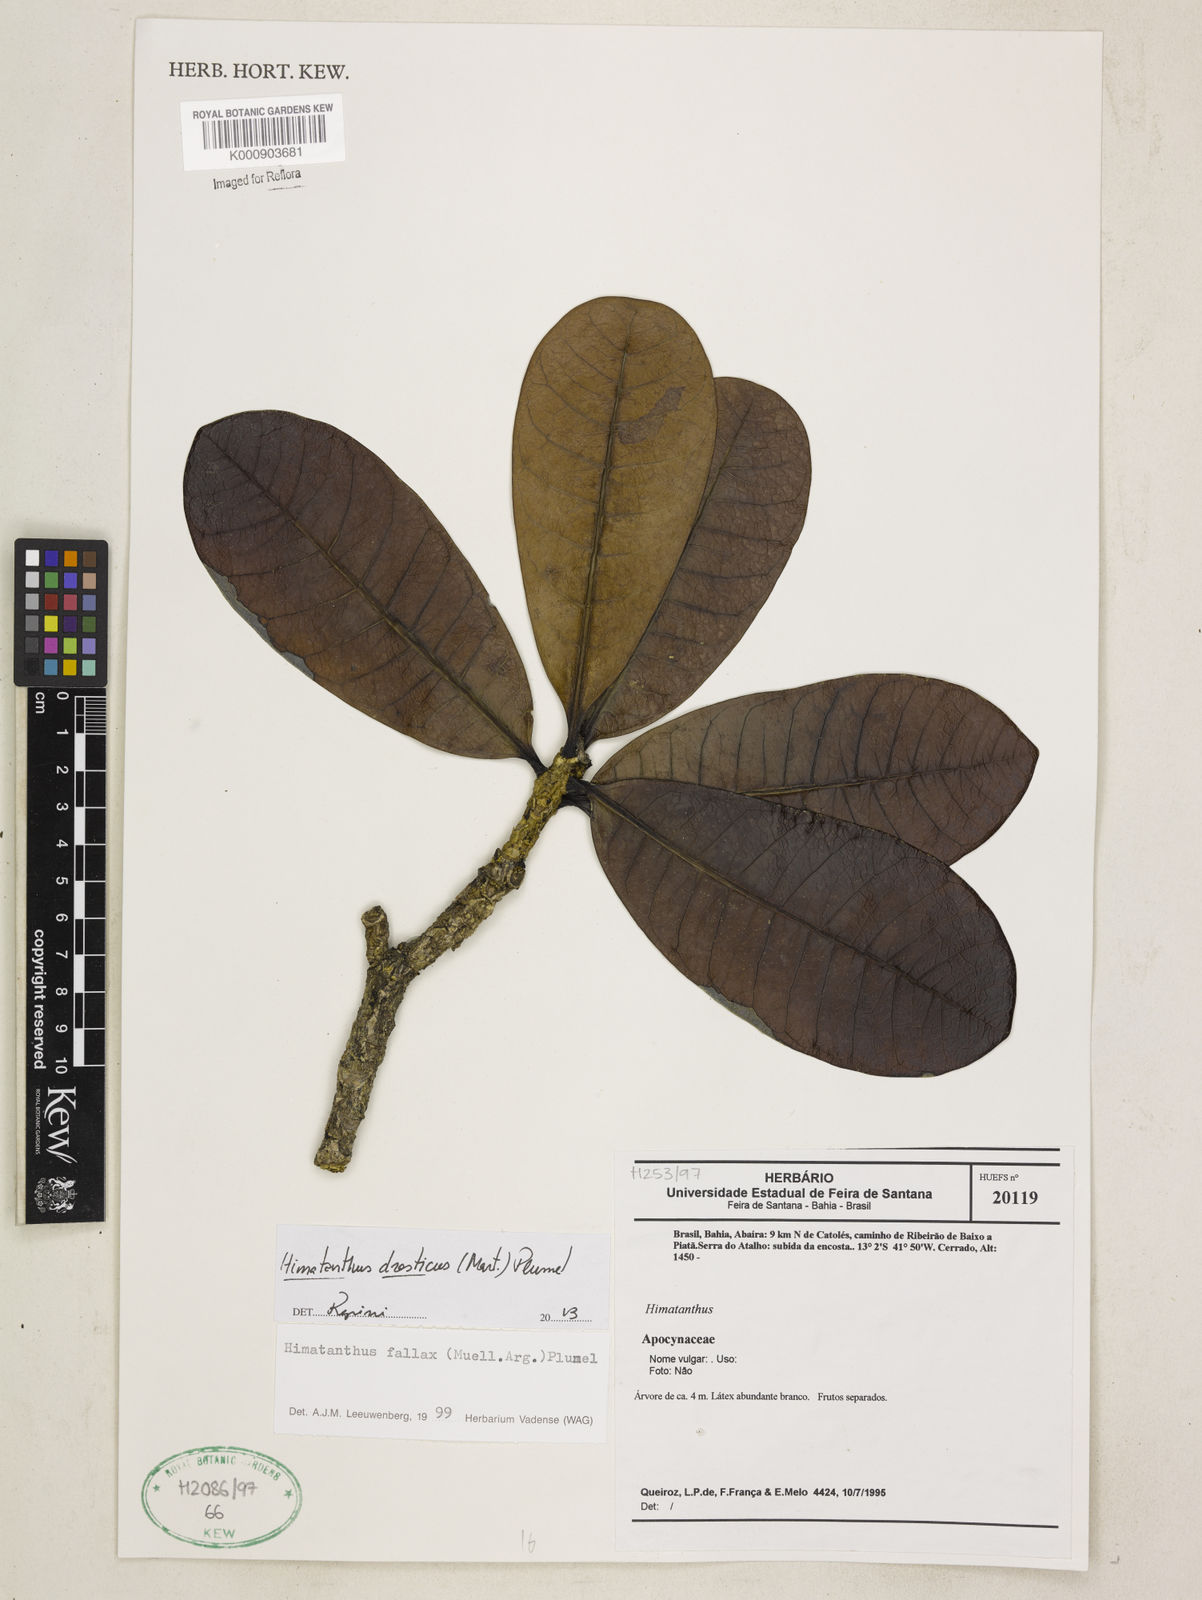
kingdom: Plantae
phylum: Tracheophyta
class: Magnoliopsida
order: Gentianales
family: Apocynaceae
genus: Himatanthus
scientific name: Himatanthus
